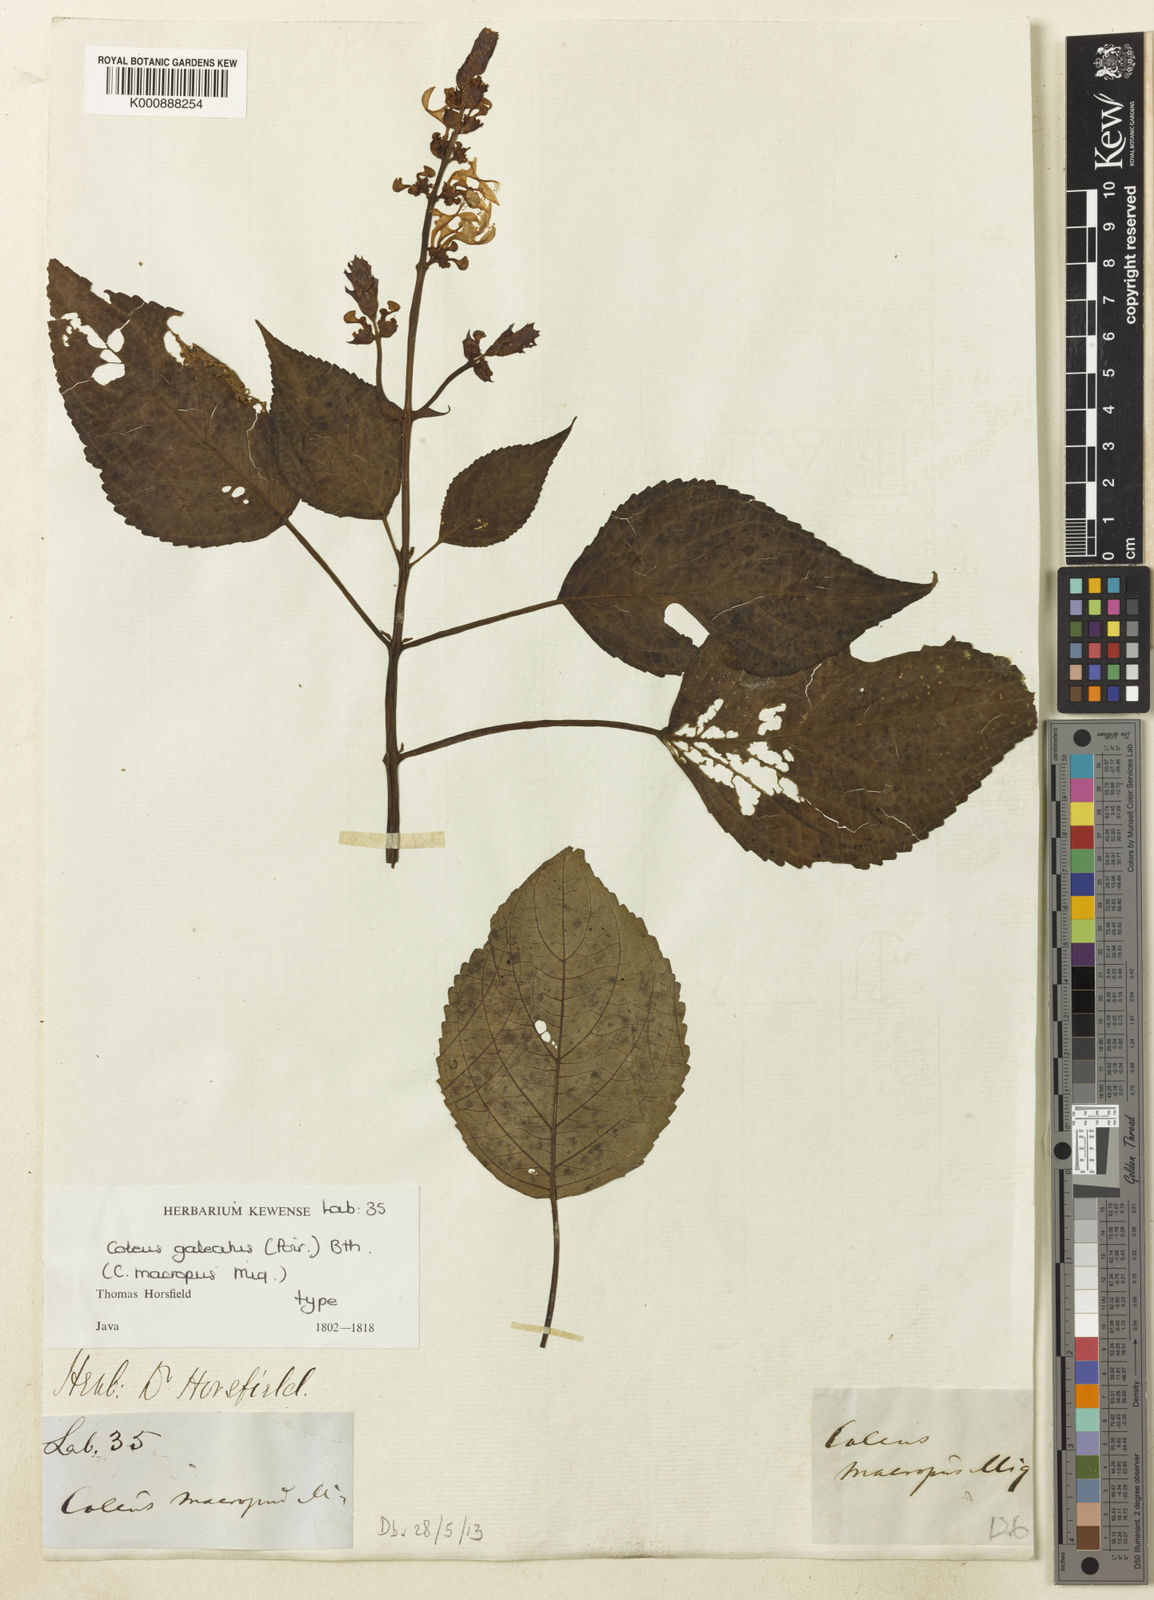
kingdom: Plantae
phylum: Tracheophyta
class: Magnoliopsida
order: Lamiales
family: Lamiaceae
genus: Coleus
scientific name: Coleus galeatus
